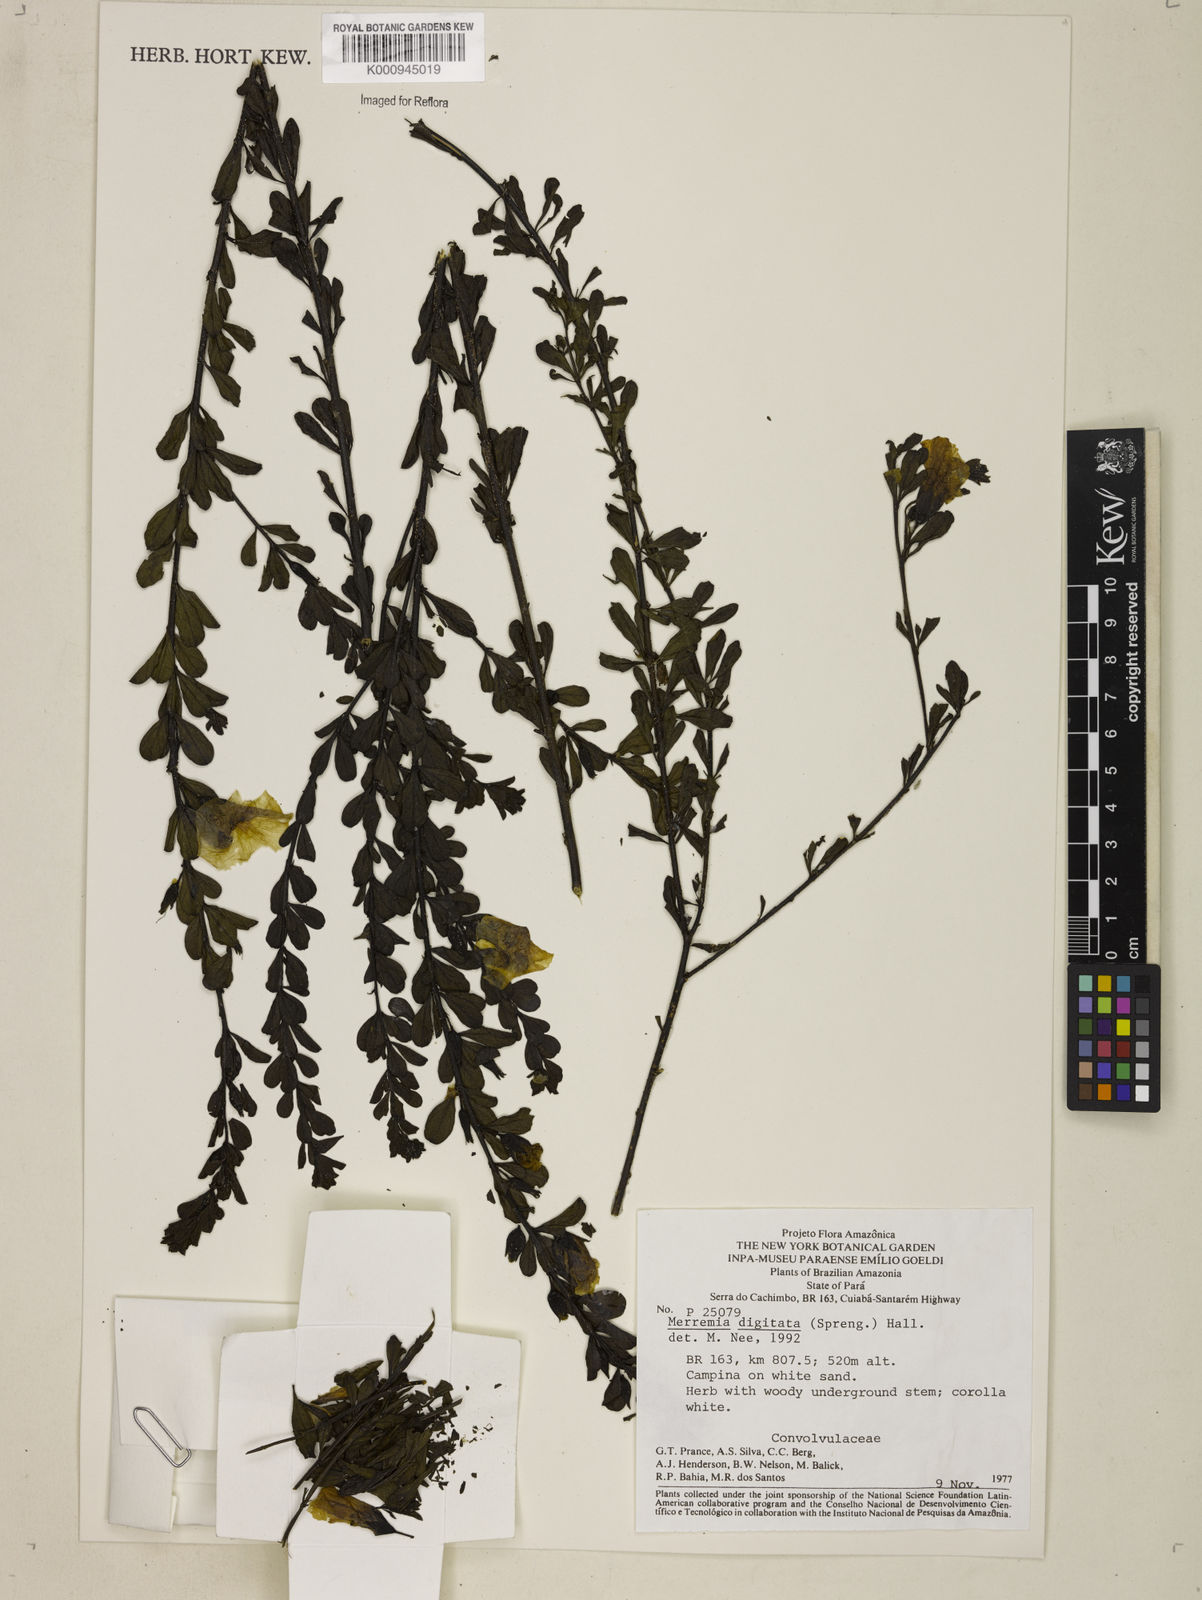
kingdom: Plantae
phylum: Tracheophyta
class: Magnoliopsida
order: Solanales
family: Convolvulaceae
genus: Distimake
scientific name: Distimake ericoides
